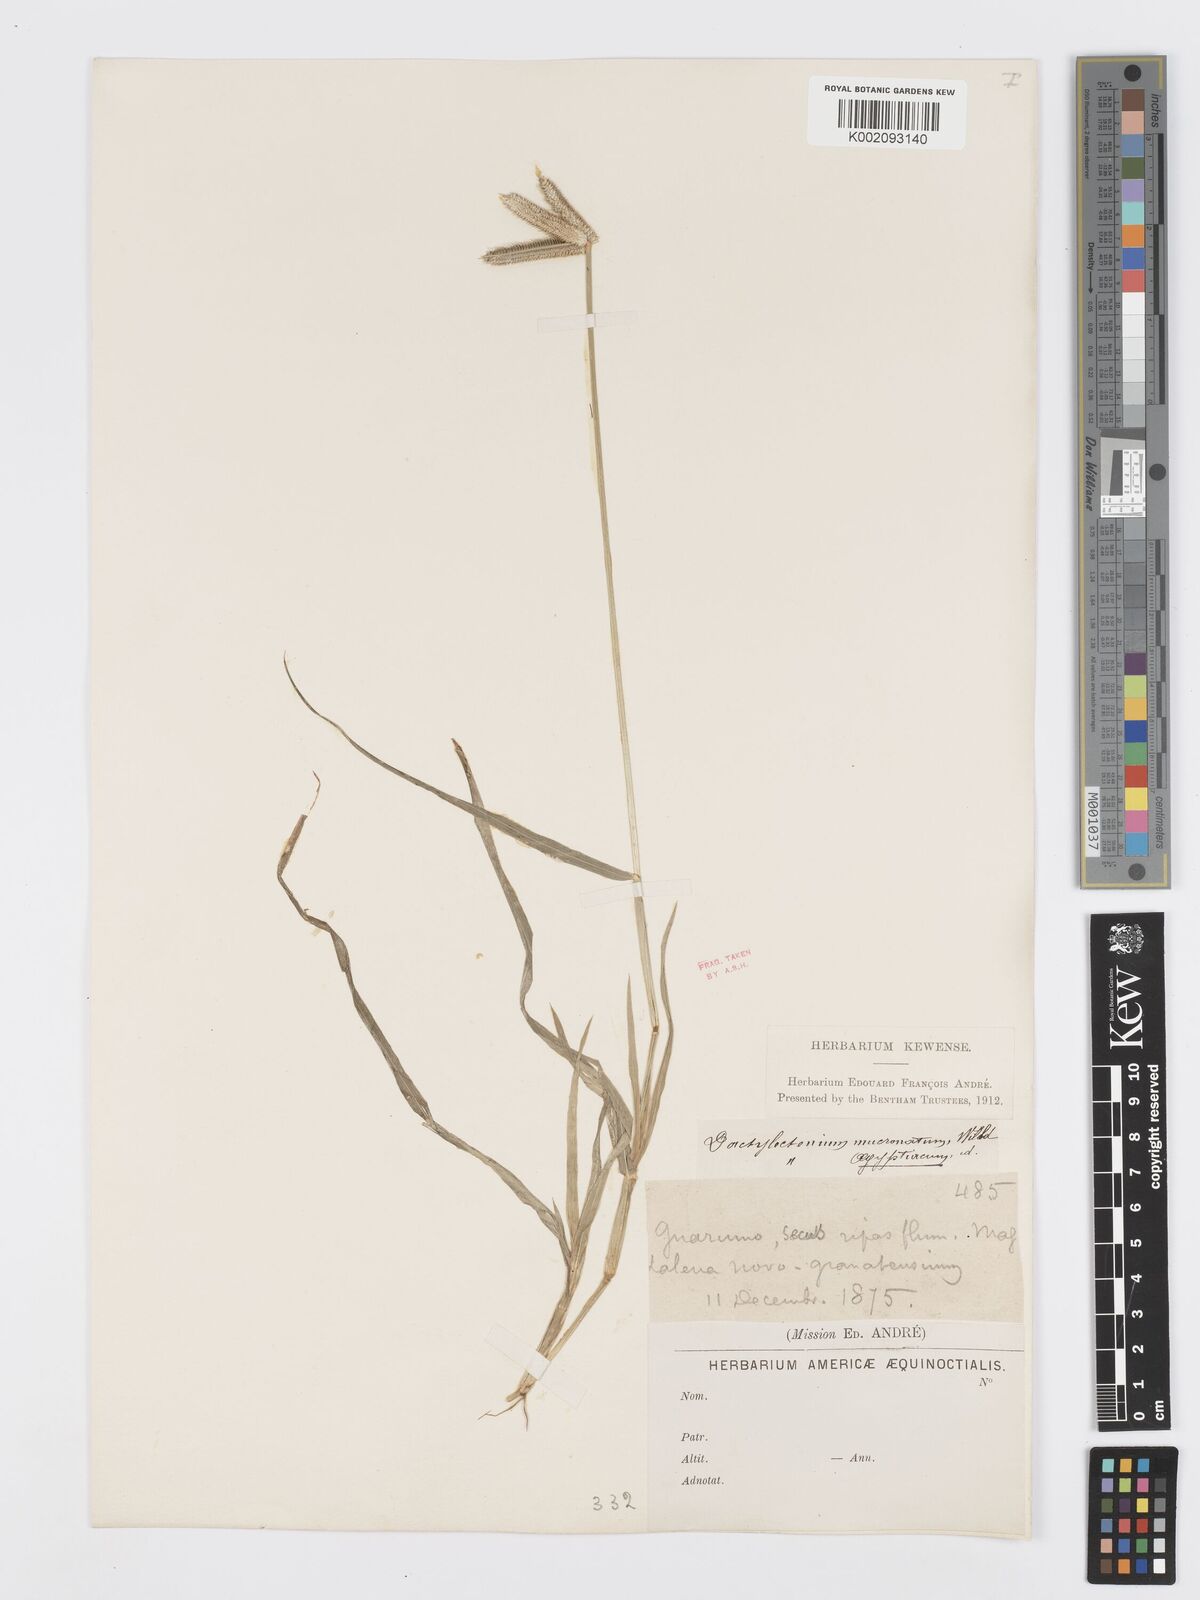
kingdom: Plantae
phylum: Tracheophyta
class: Liliopsida
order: Poales
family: Poaceae
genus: Dactyloctenium
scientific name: Dactyloctenium aegyptium
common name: Egyptian grass
